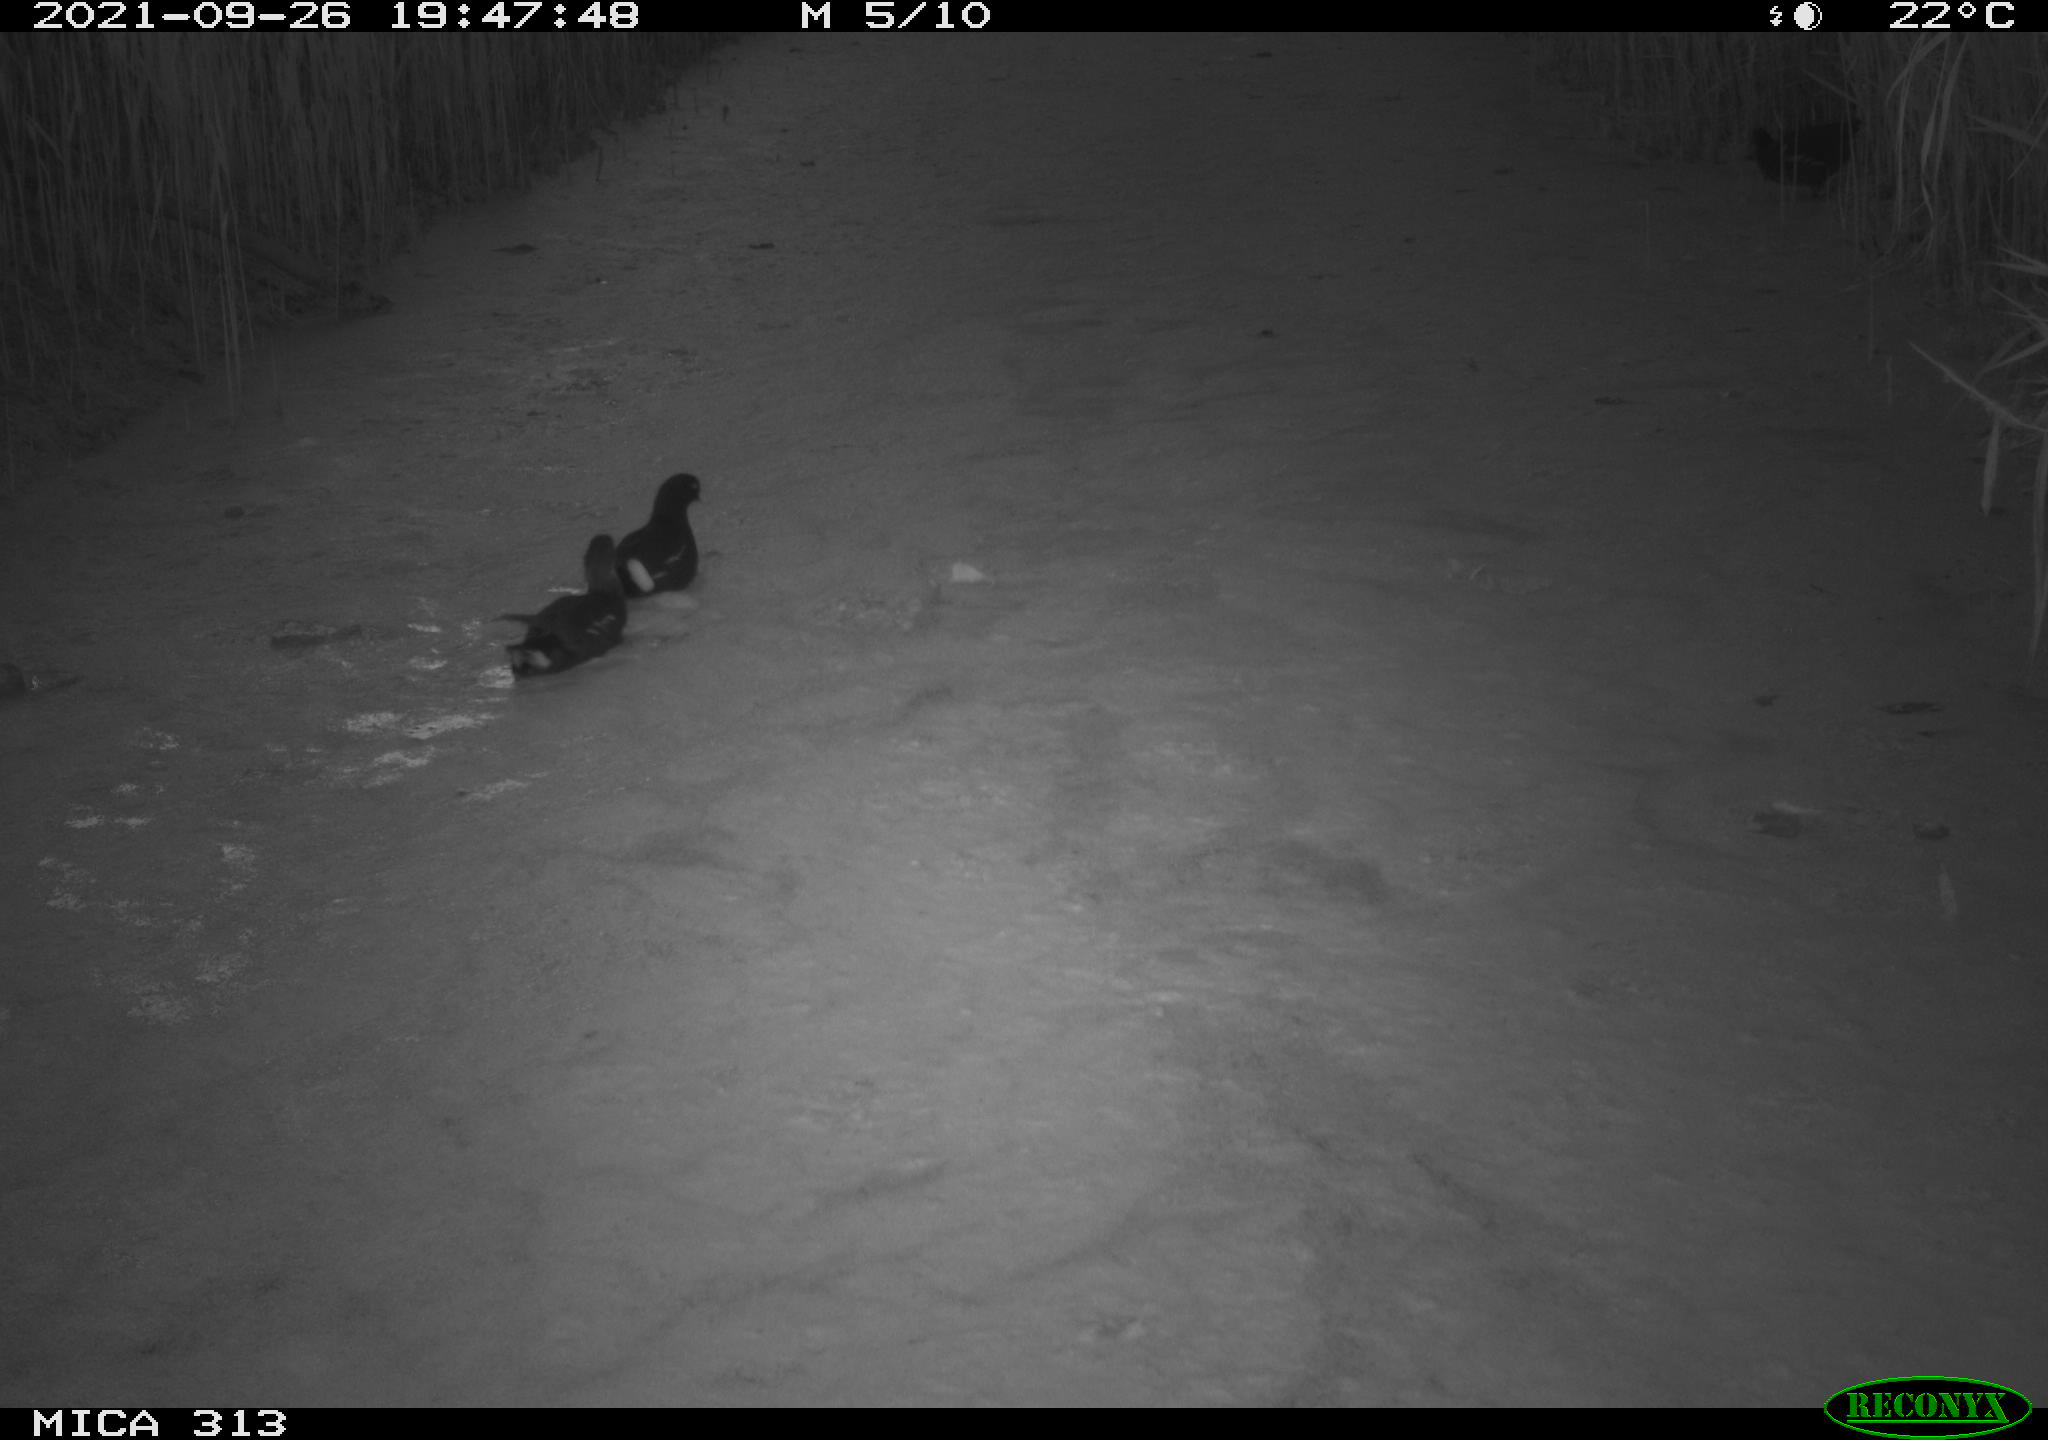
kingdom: Animalia
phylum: Chordata
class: Aves
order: Gruiformes
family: Rallidae
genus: Gallinula
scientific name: Gallinula chloropus
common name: Common moorhen
